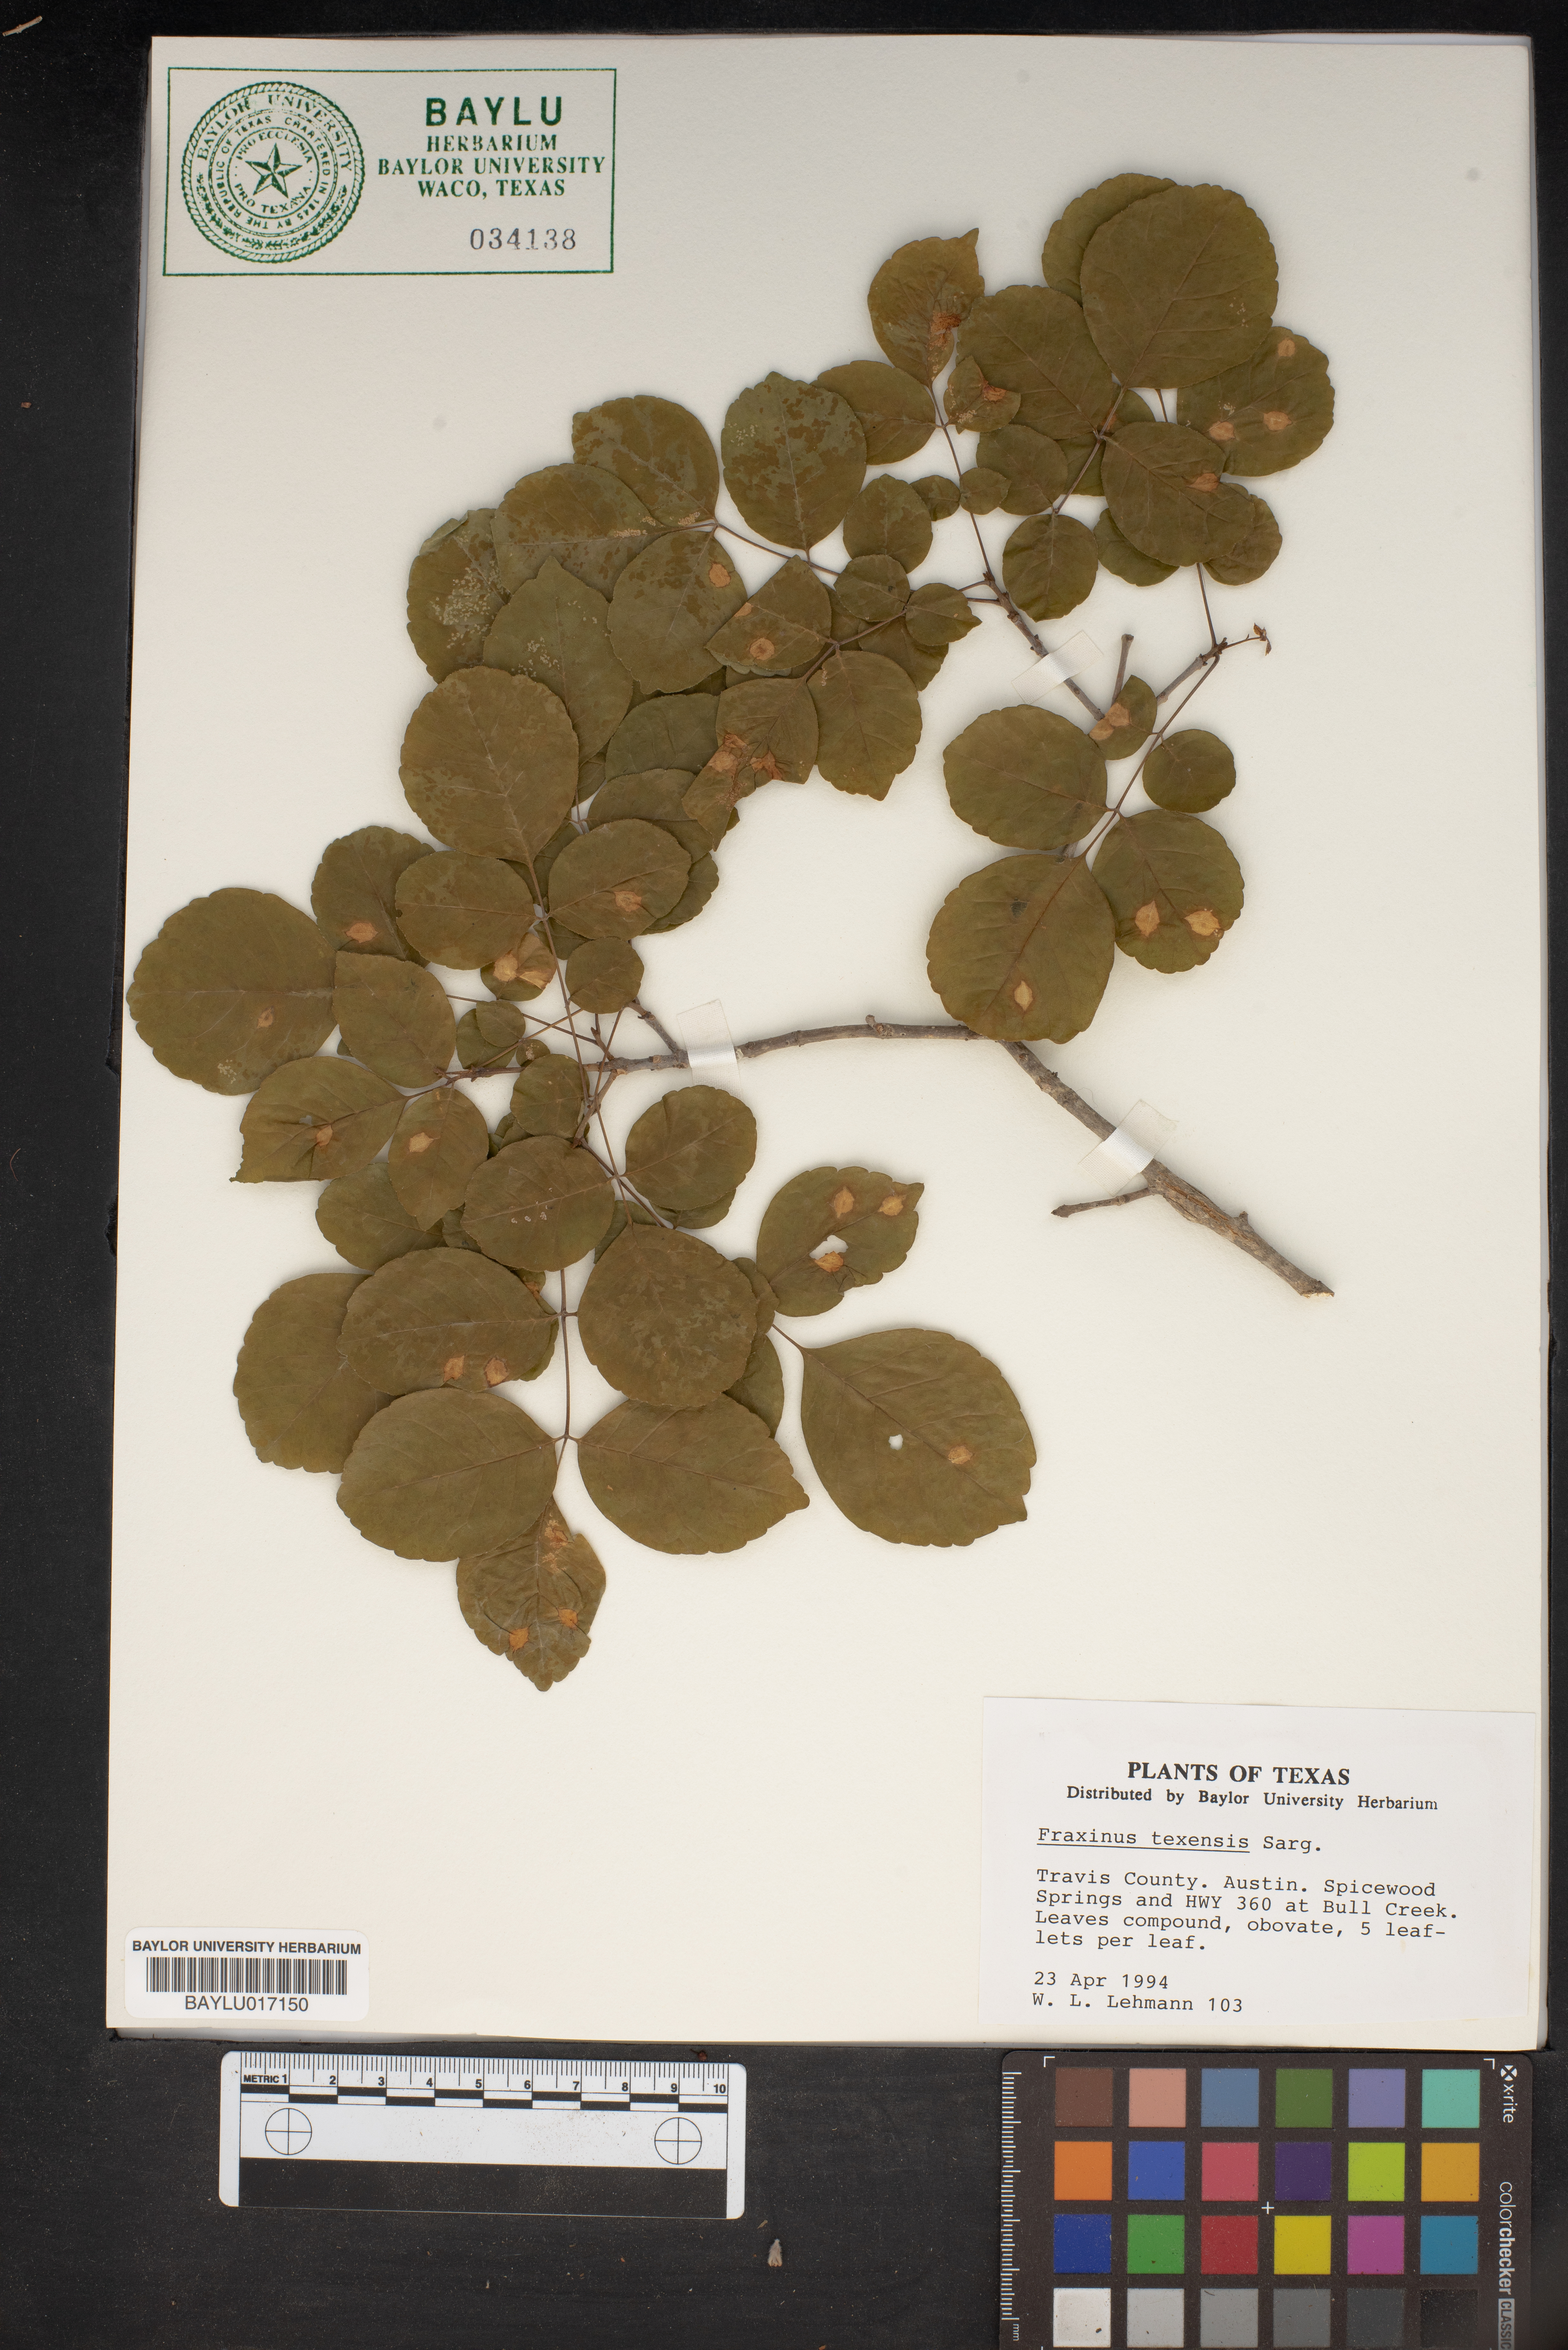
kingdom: Plantae
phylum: Tracheophyta
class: Magnoliopsida
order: Lamiales
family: Oleaceae
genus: Fraxinus
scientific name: Fraxinus albicans
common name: Texas ash
